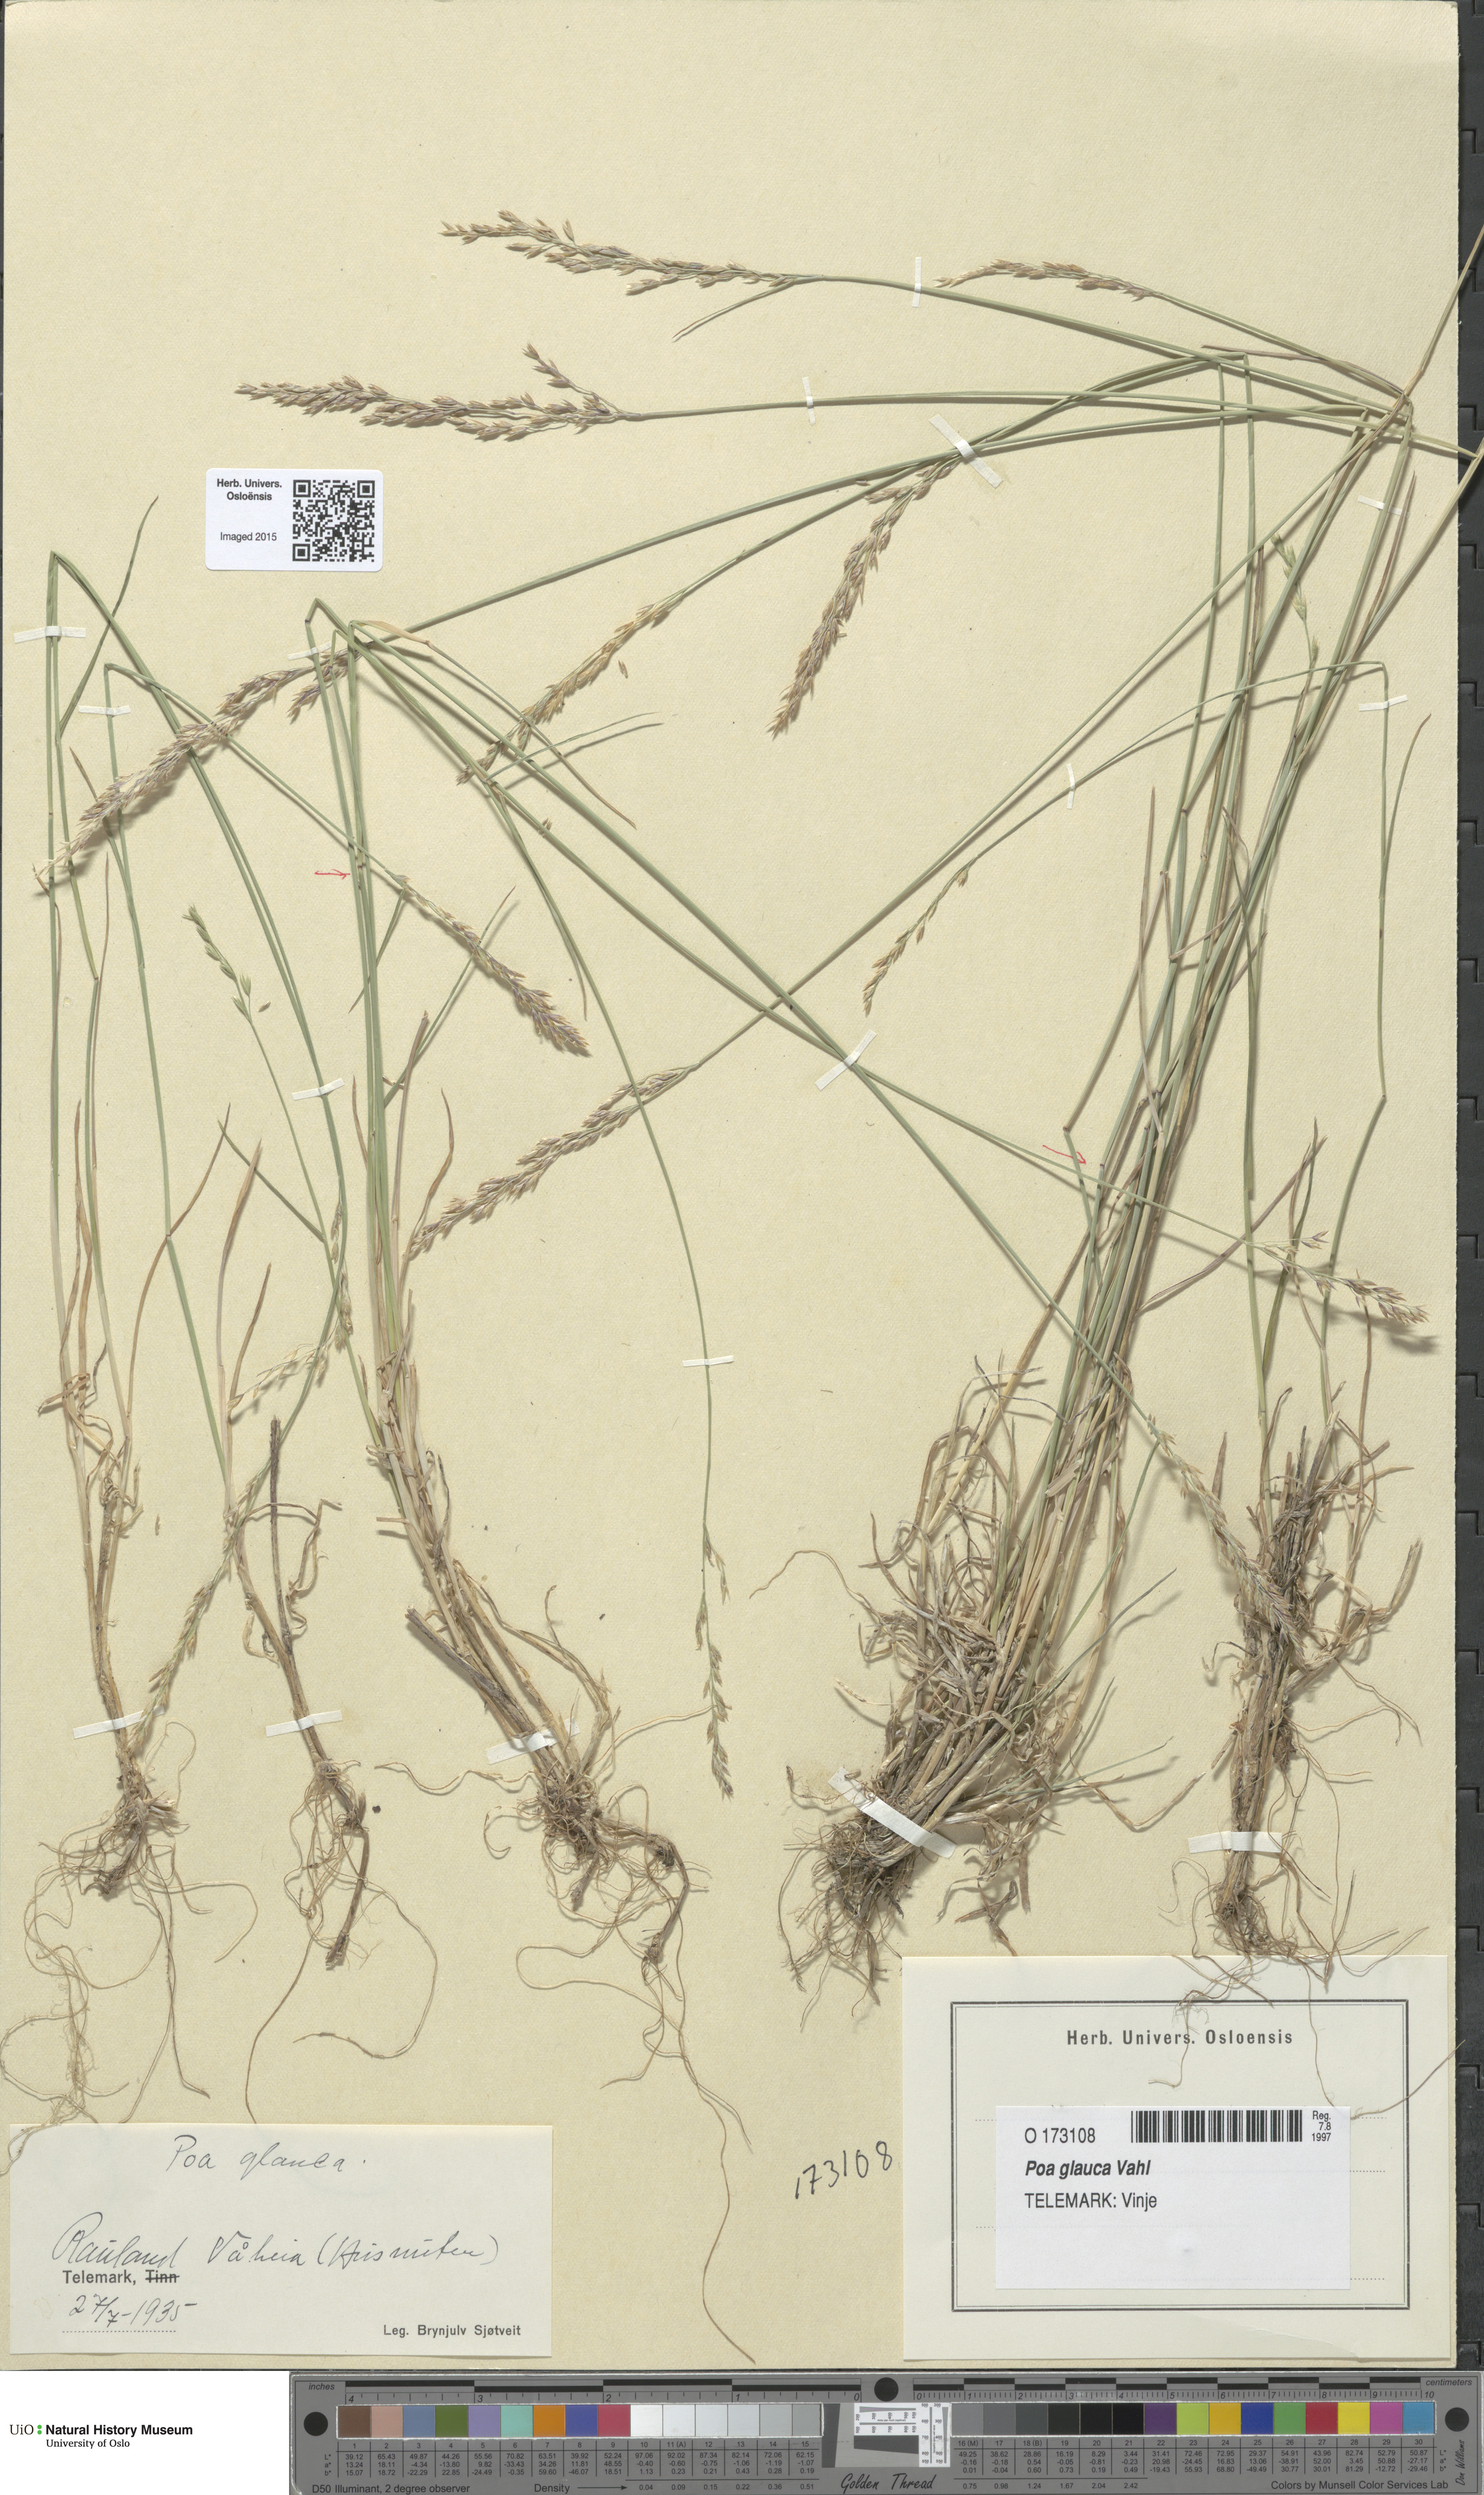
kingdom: Plantae
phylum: Tracheophyta
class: Liliopsida
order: Poales
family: Poaceae
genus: Poa
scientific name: Poa glauca
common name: Glaucous bluegrass
